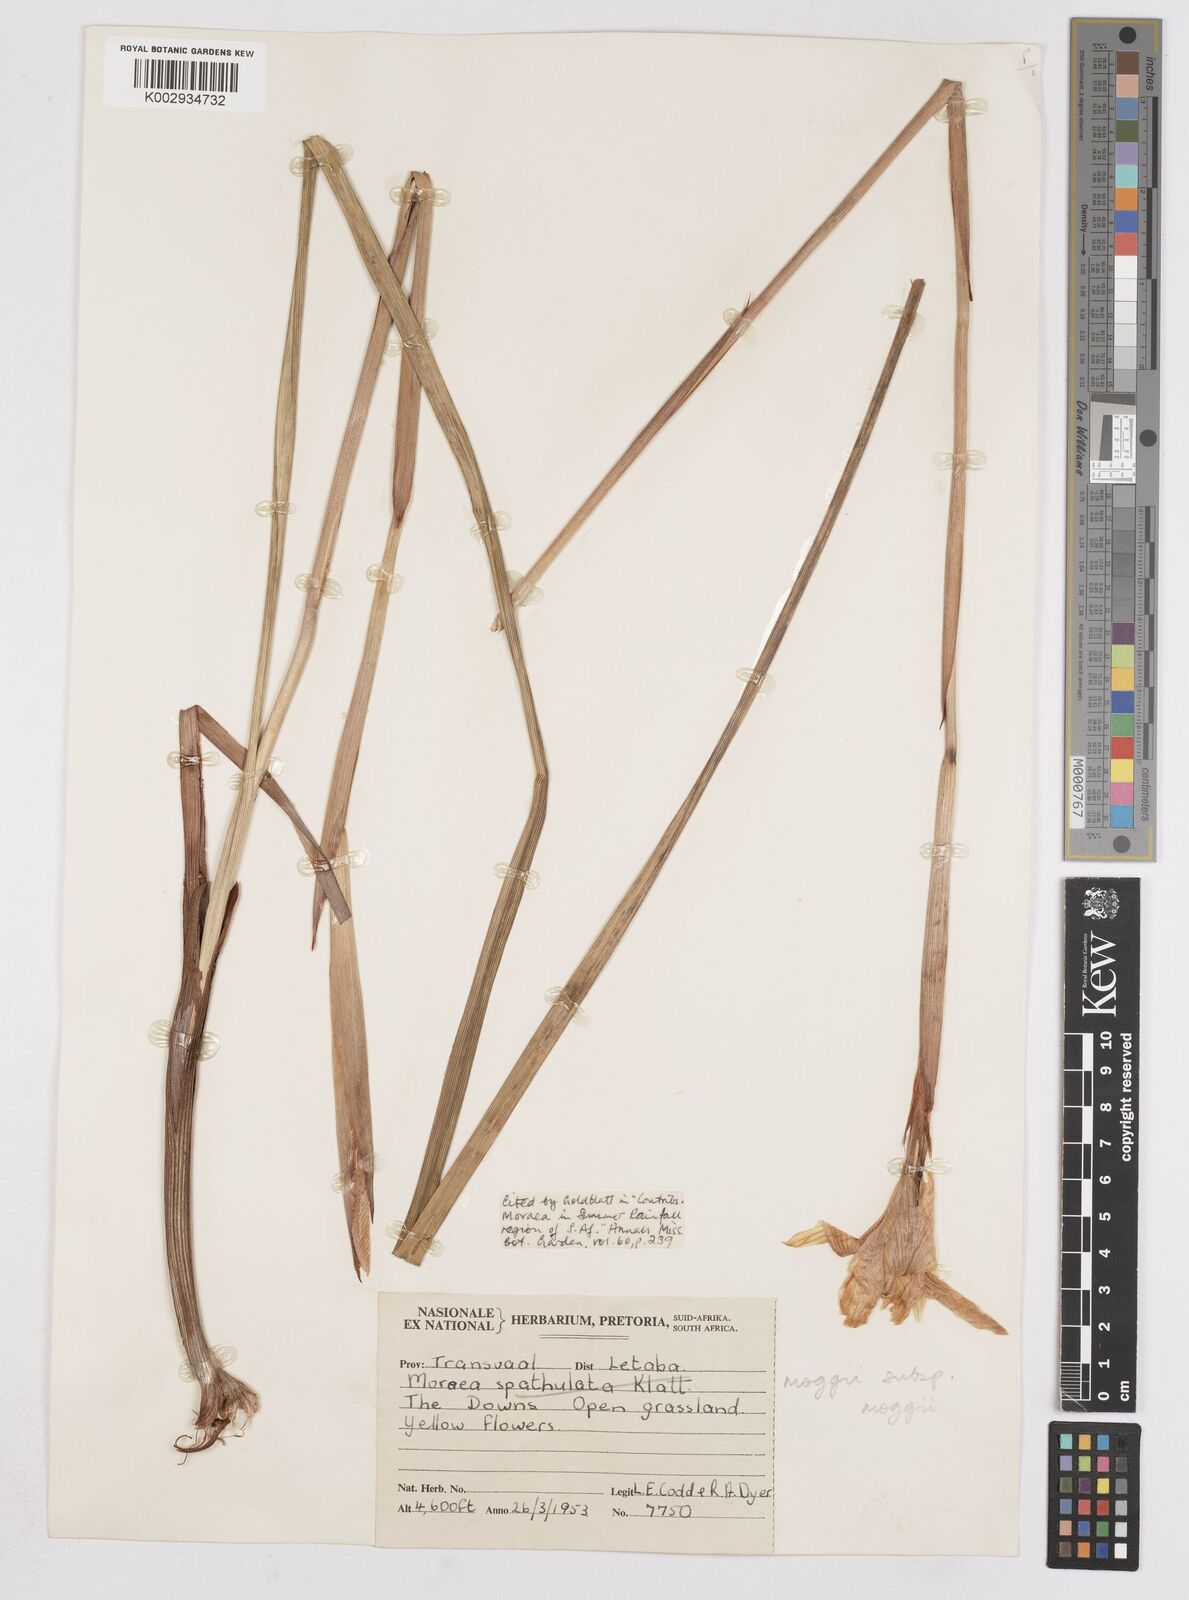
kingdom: Plantae
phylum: Tracheophyta
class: Liliopsida
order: Asparagales
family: Iridaceae
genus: Moraea
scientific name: Moraea moggii
